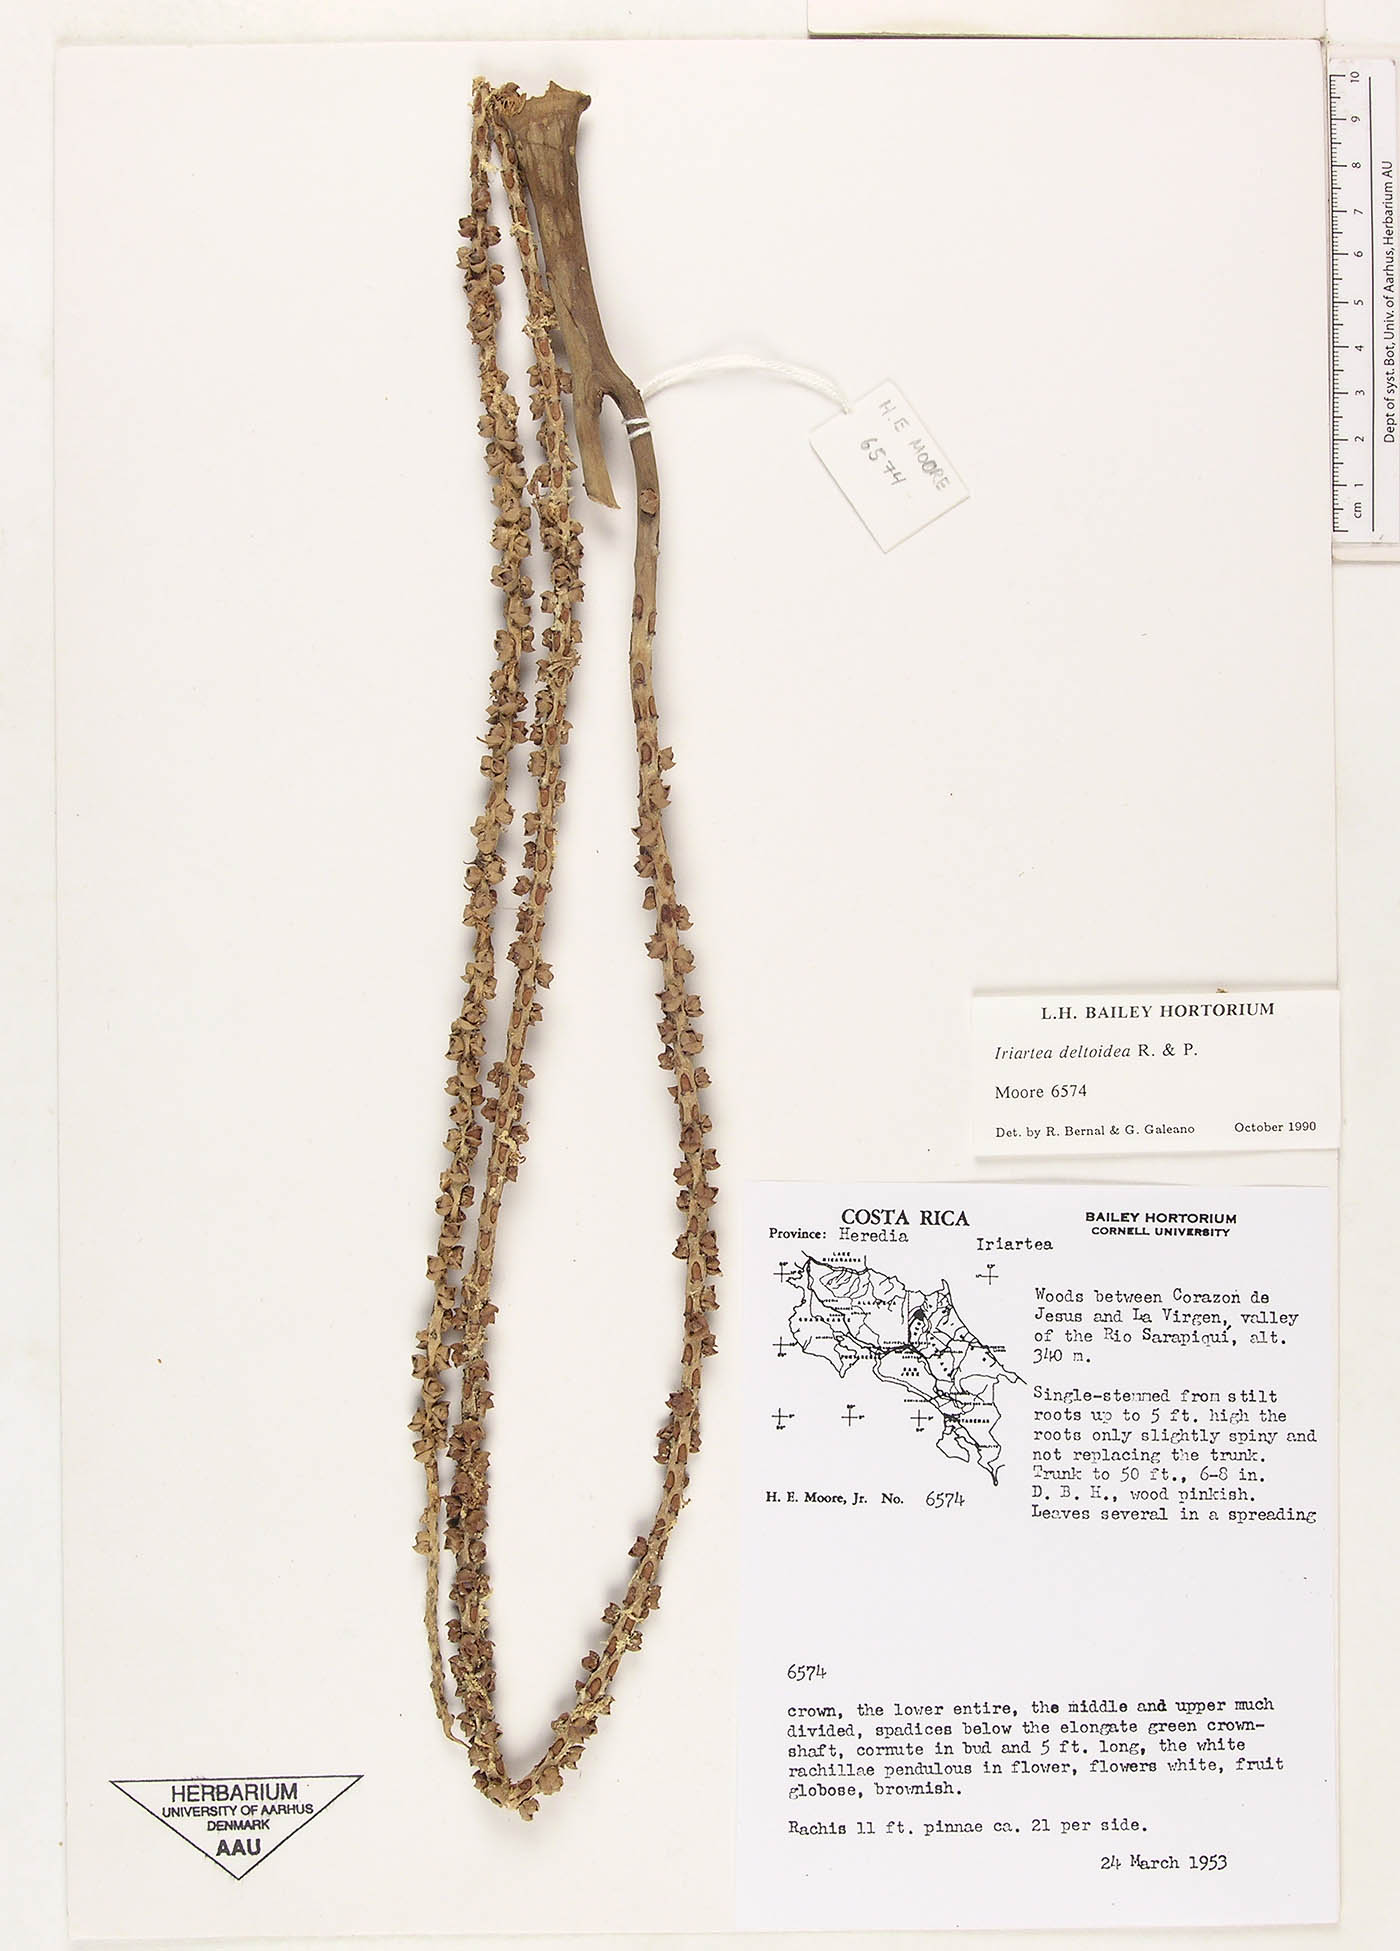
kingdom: Plantae
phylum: Tracheophyta
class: Liliopsida
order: Arecales
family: Arecaceae
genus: Iriartea
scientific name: Iriartea deltoidea
